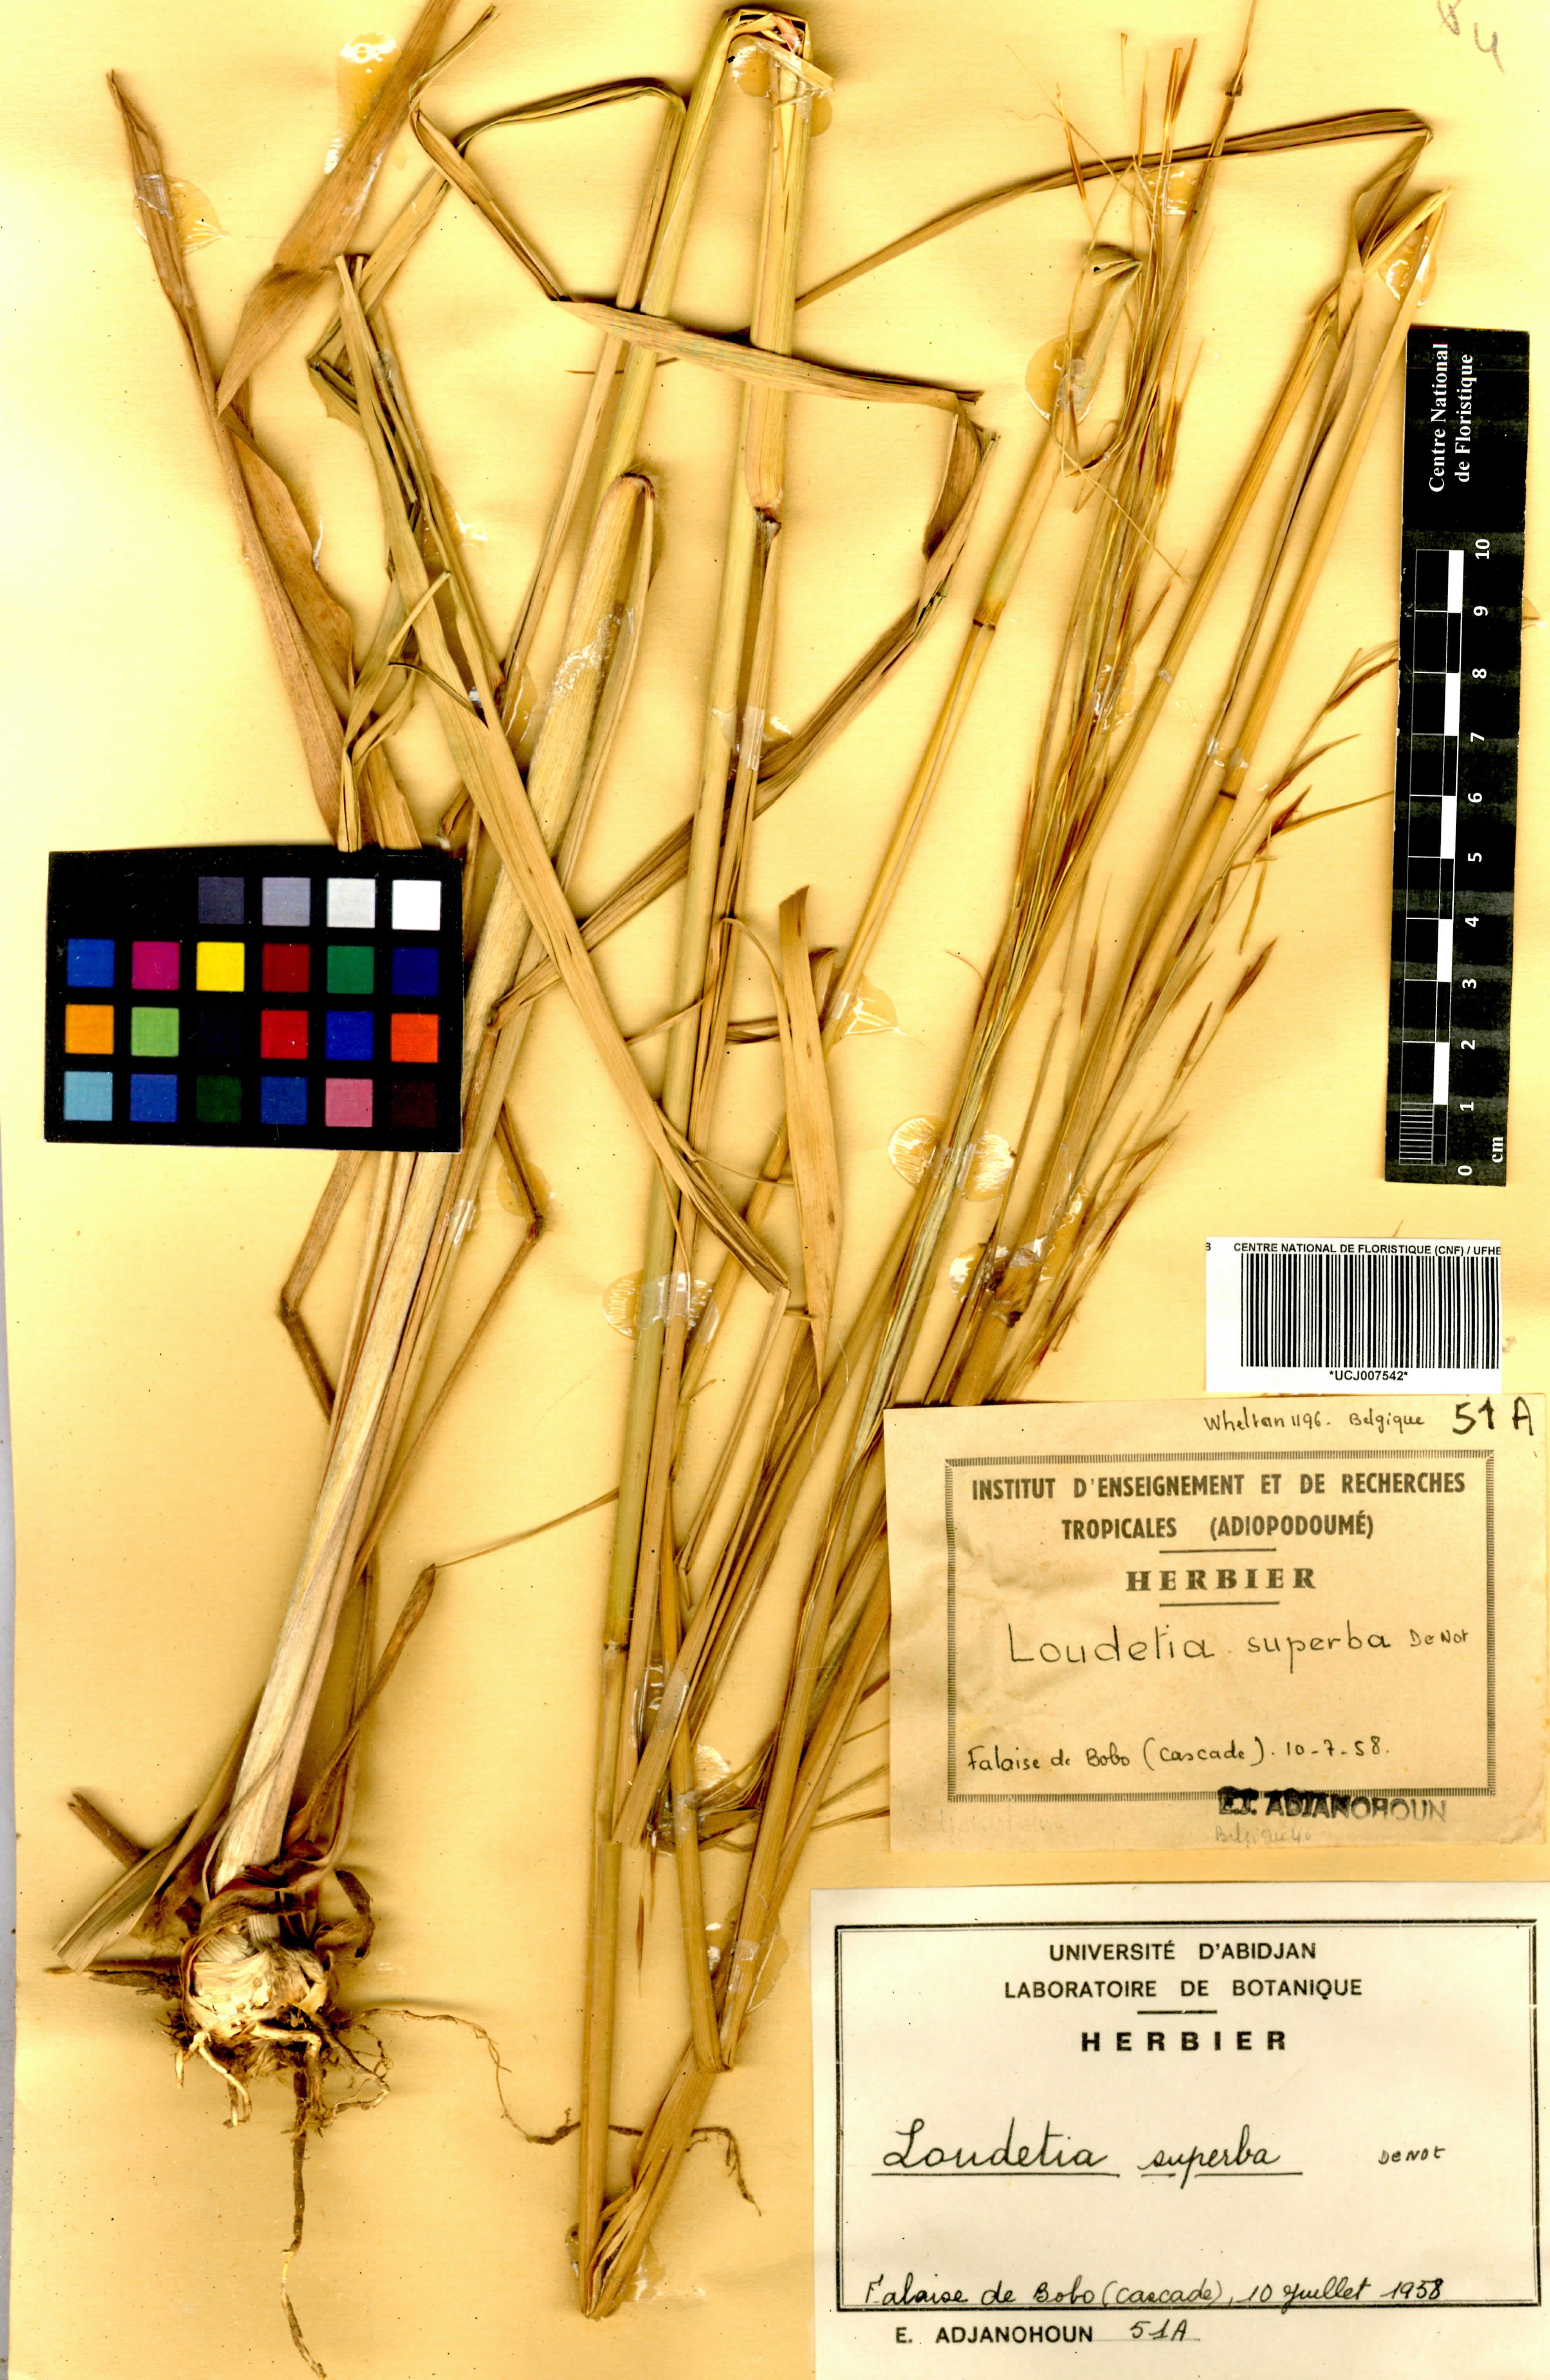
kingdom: Plantae
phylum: Tracheophyta
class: Liliopsida
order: Poales
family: Poaceae
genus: Tristachya
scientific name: Tristachya superba
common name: Giant trident grass
